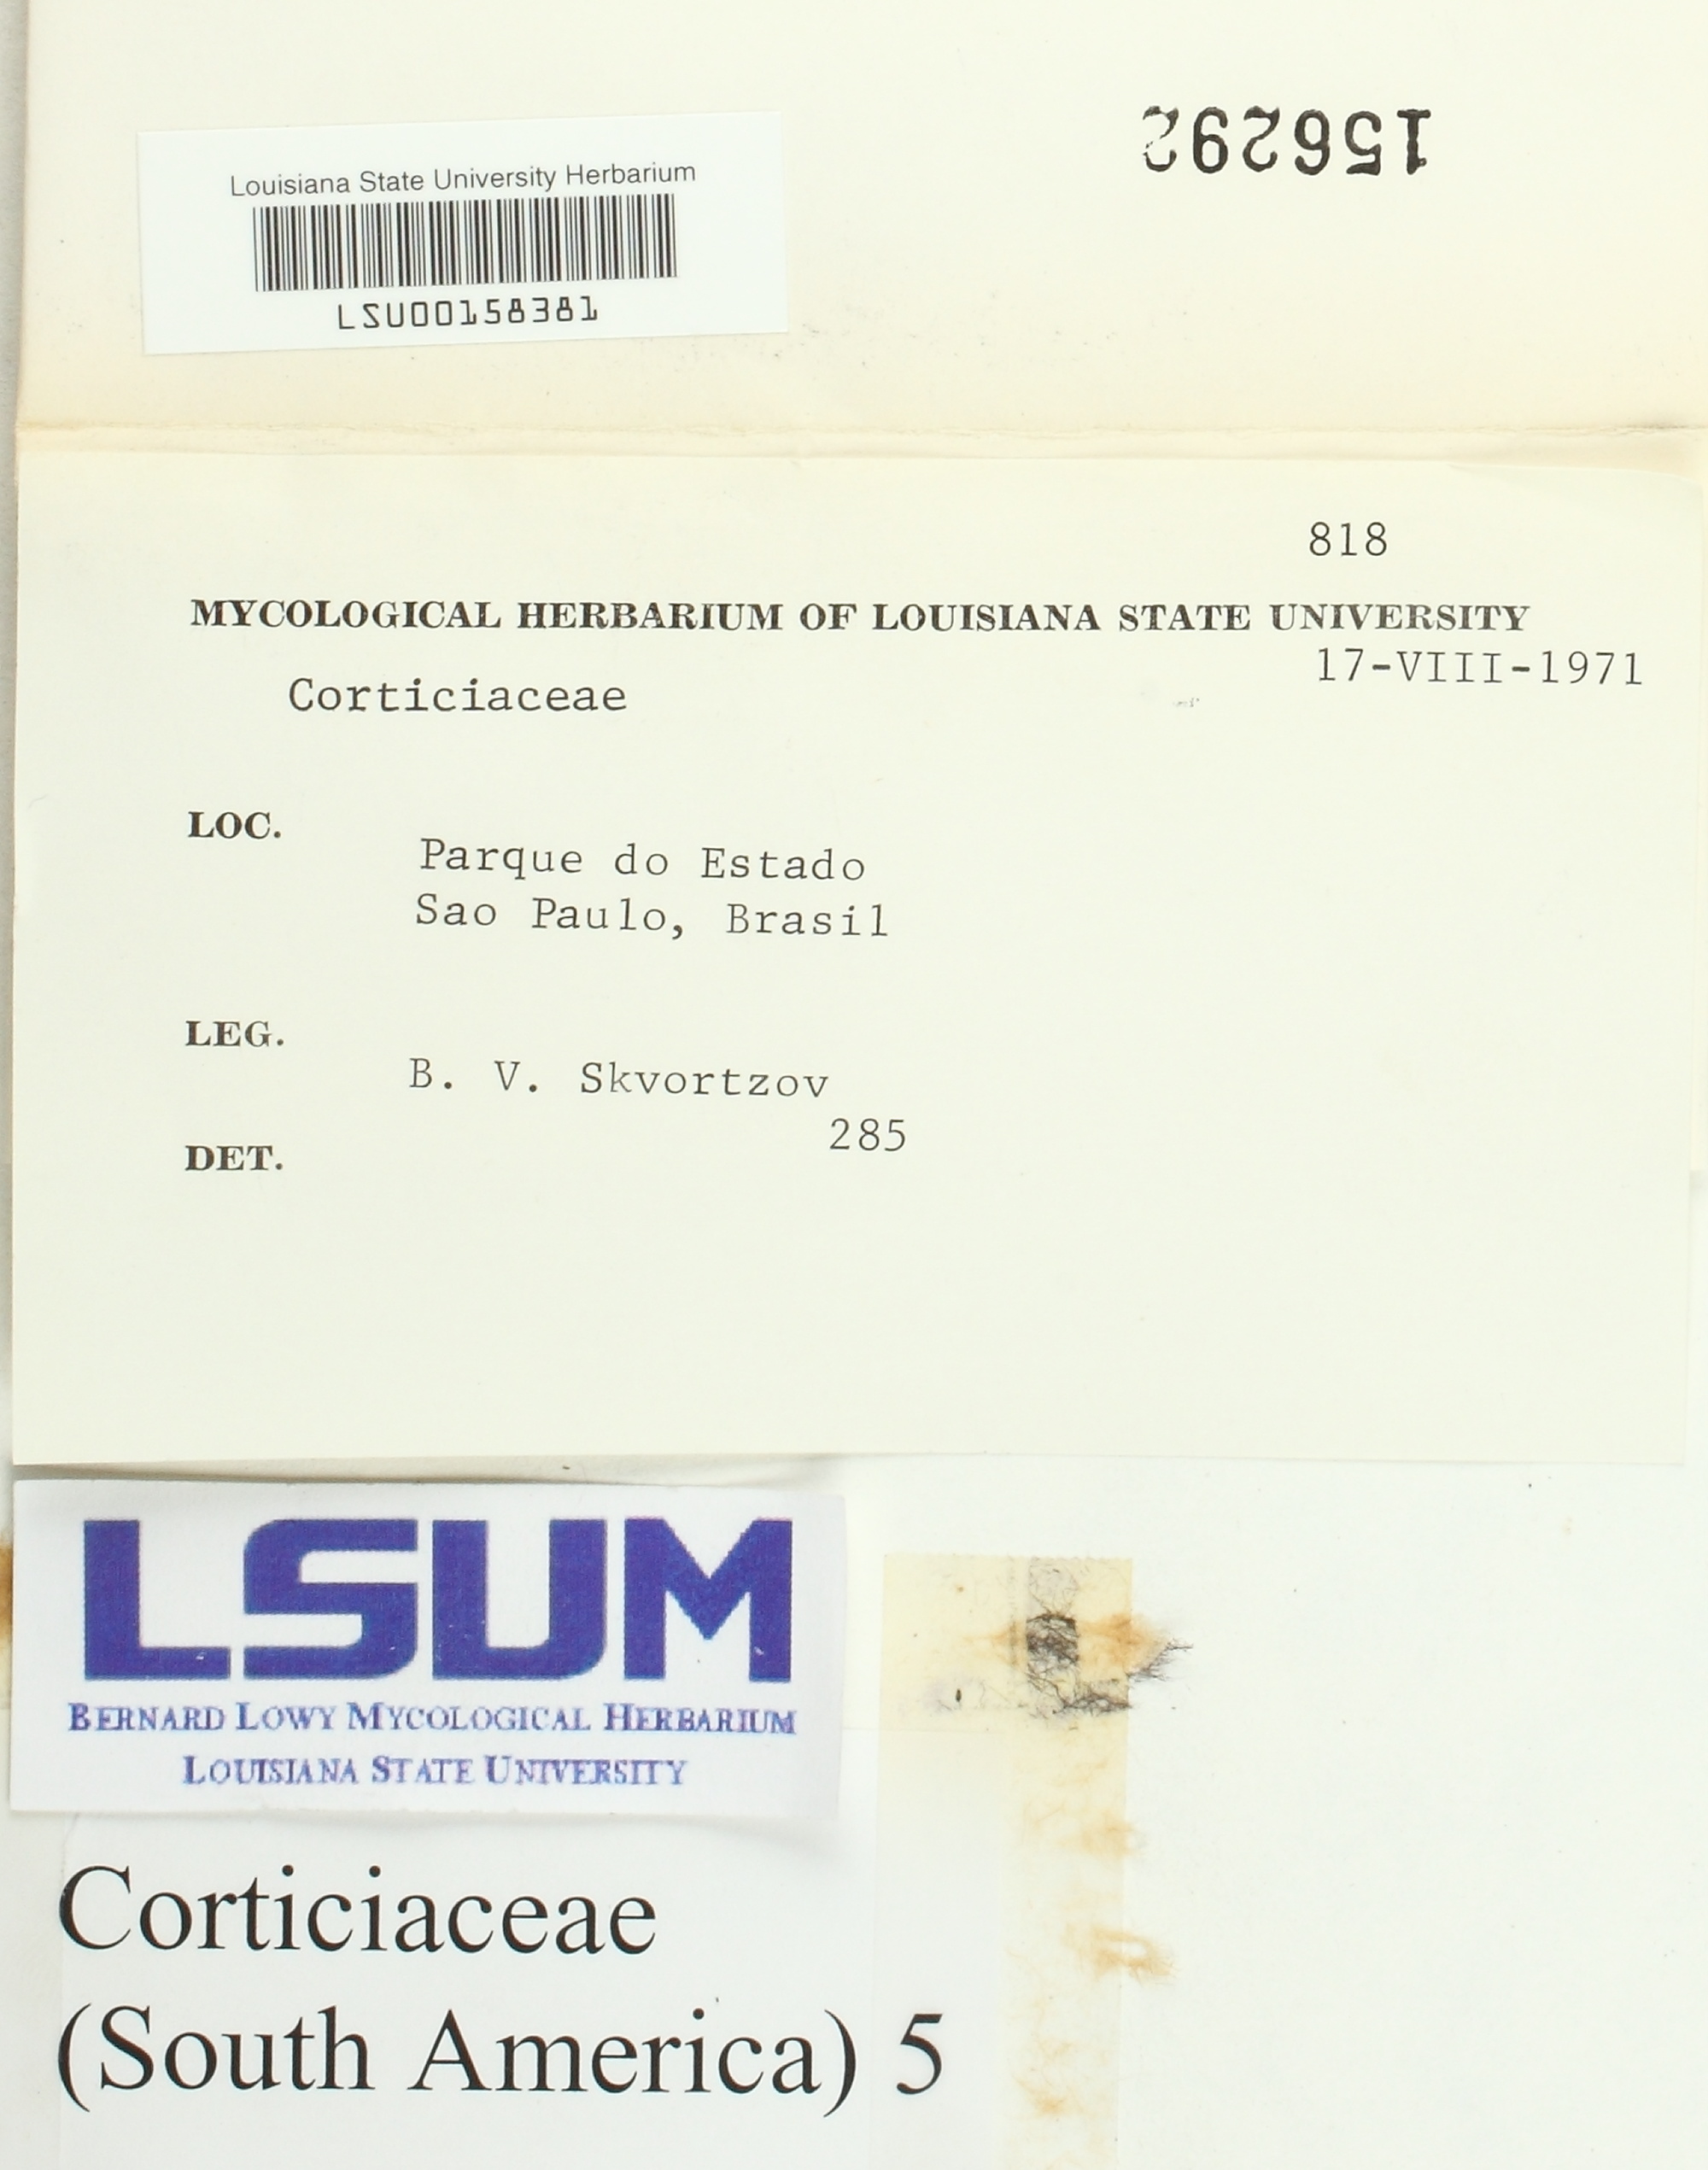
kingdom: Fungi
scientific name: Fungi
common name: Fungi
